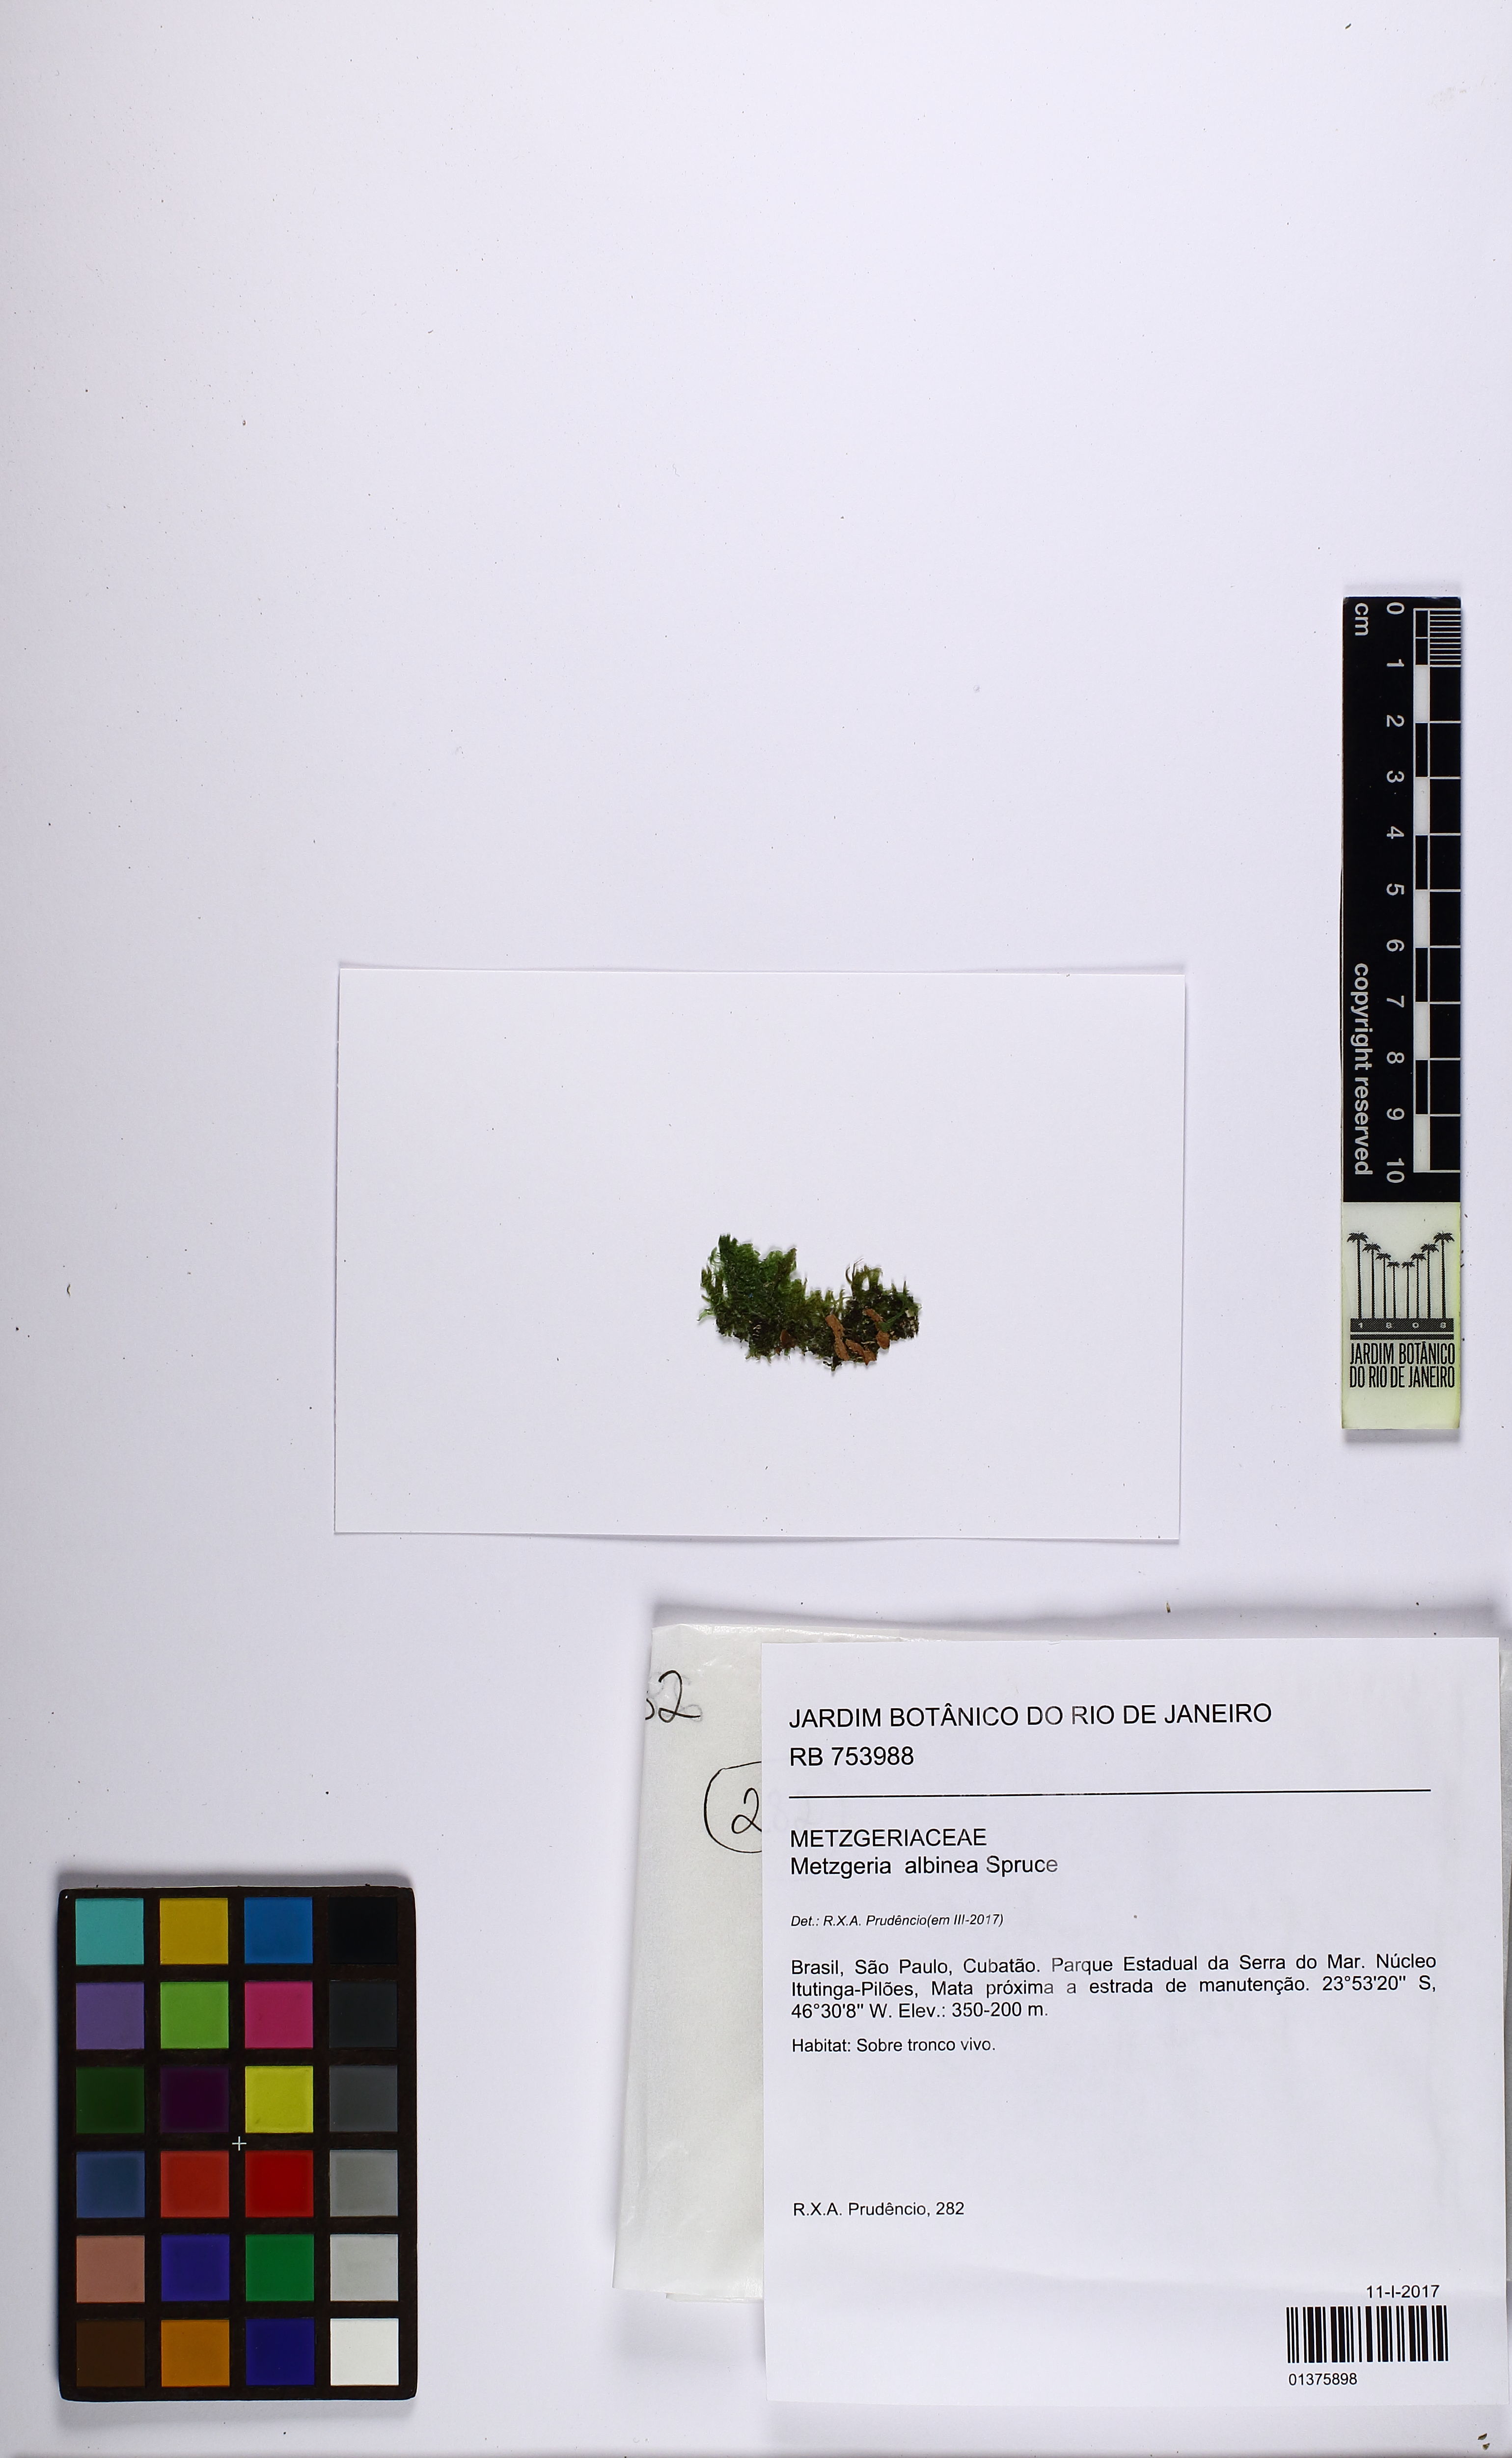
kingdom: Plantae
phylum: Marchantiophyta
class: Jungermanniopsida
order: Metzgeriales
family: Metzgeriaceae
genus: Metzgeria
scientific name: Metzgeria albinea
